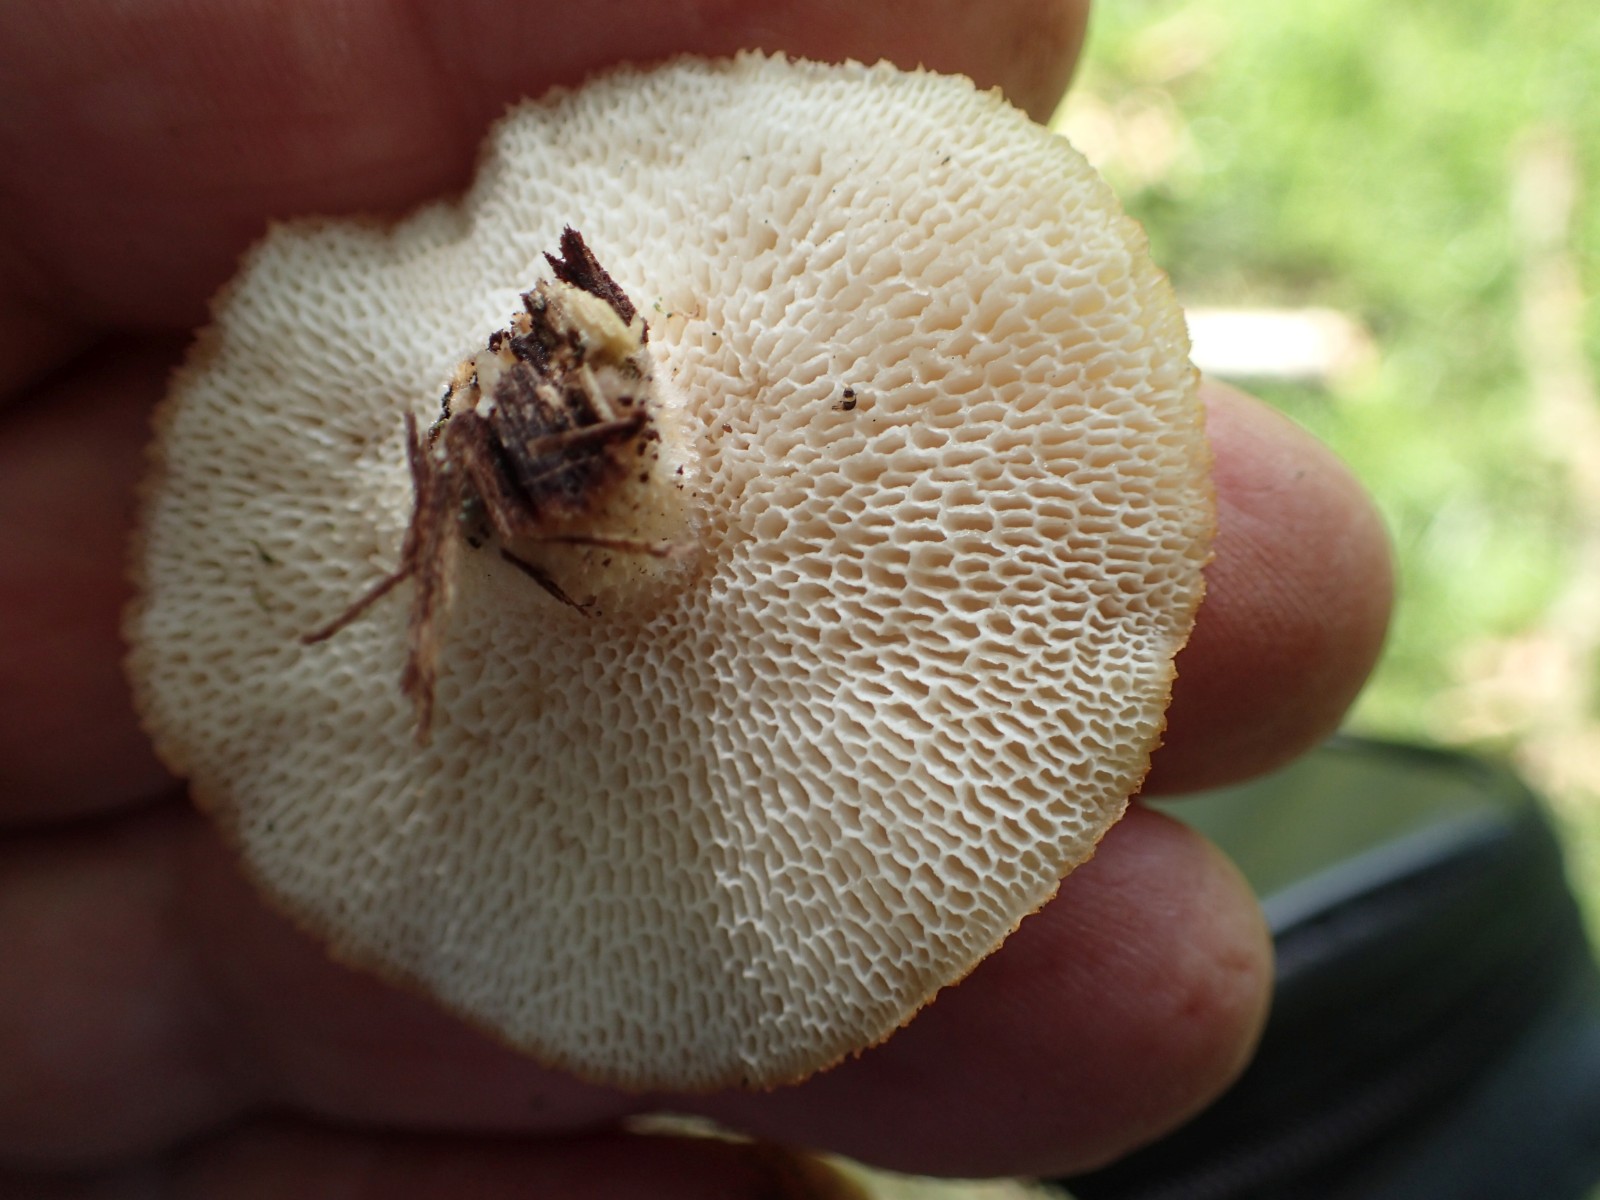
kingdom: Fungi
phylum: Basidiomycota
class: Agaricomycetes
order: Polyporales
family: Polyporaceae
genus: Polyporus
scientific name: Polyporus tuberaster
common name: knoldet stilkporesvamp
